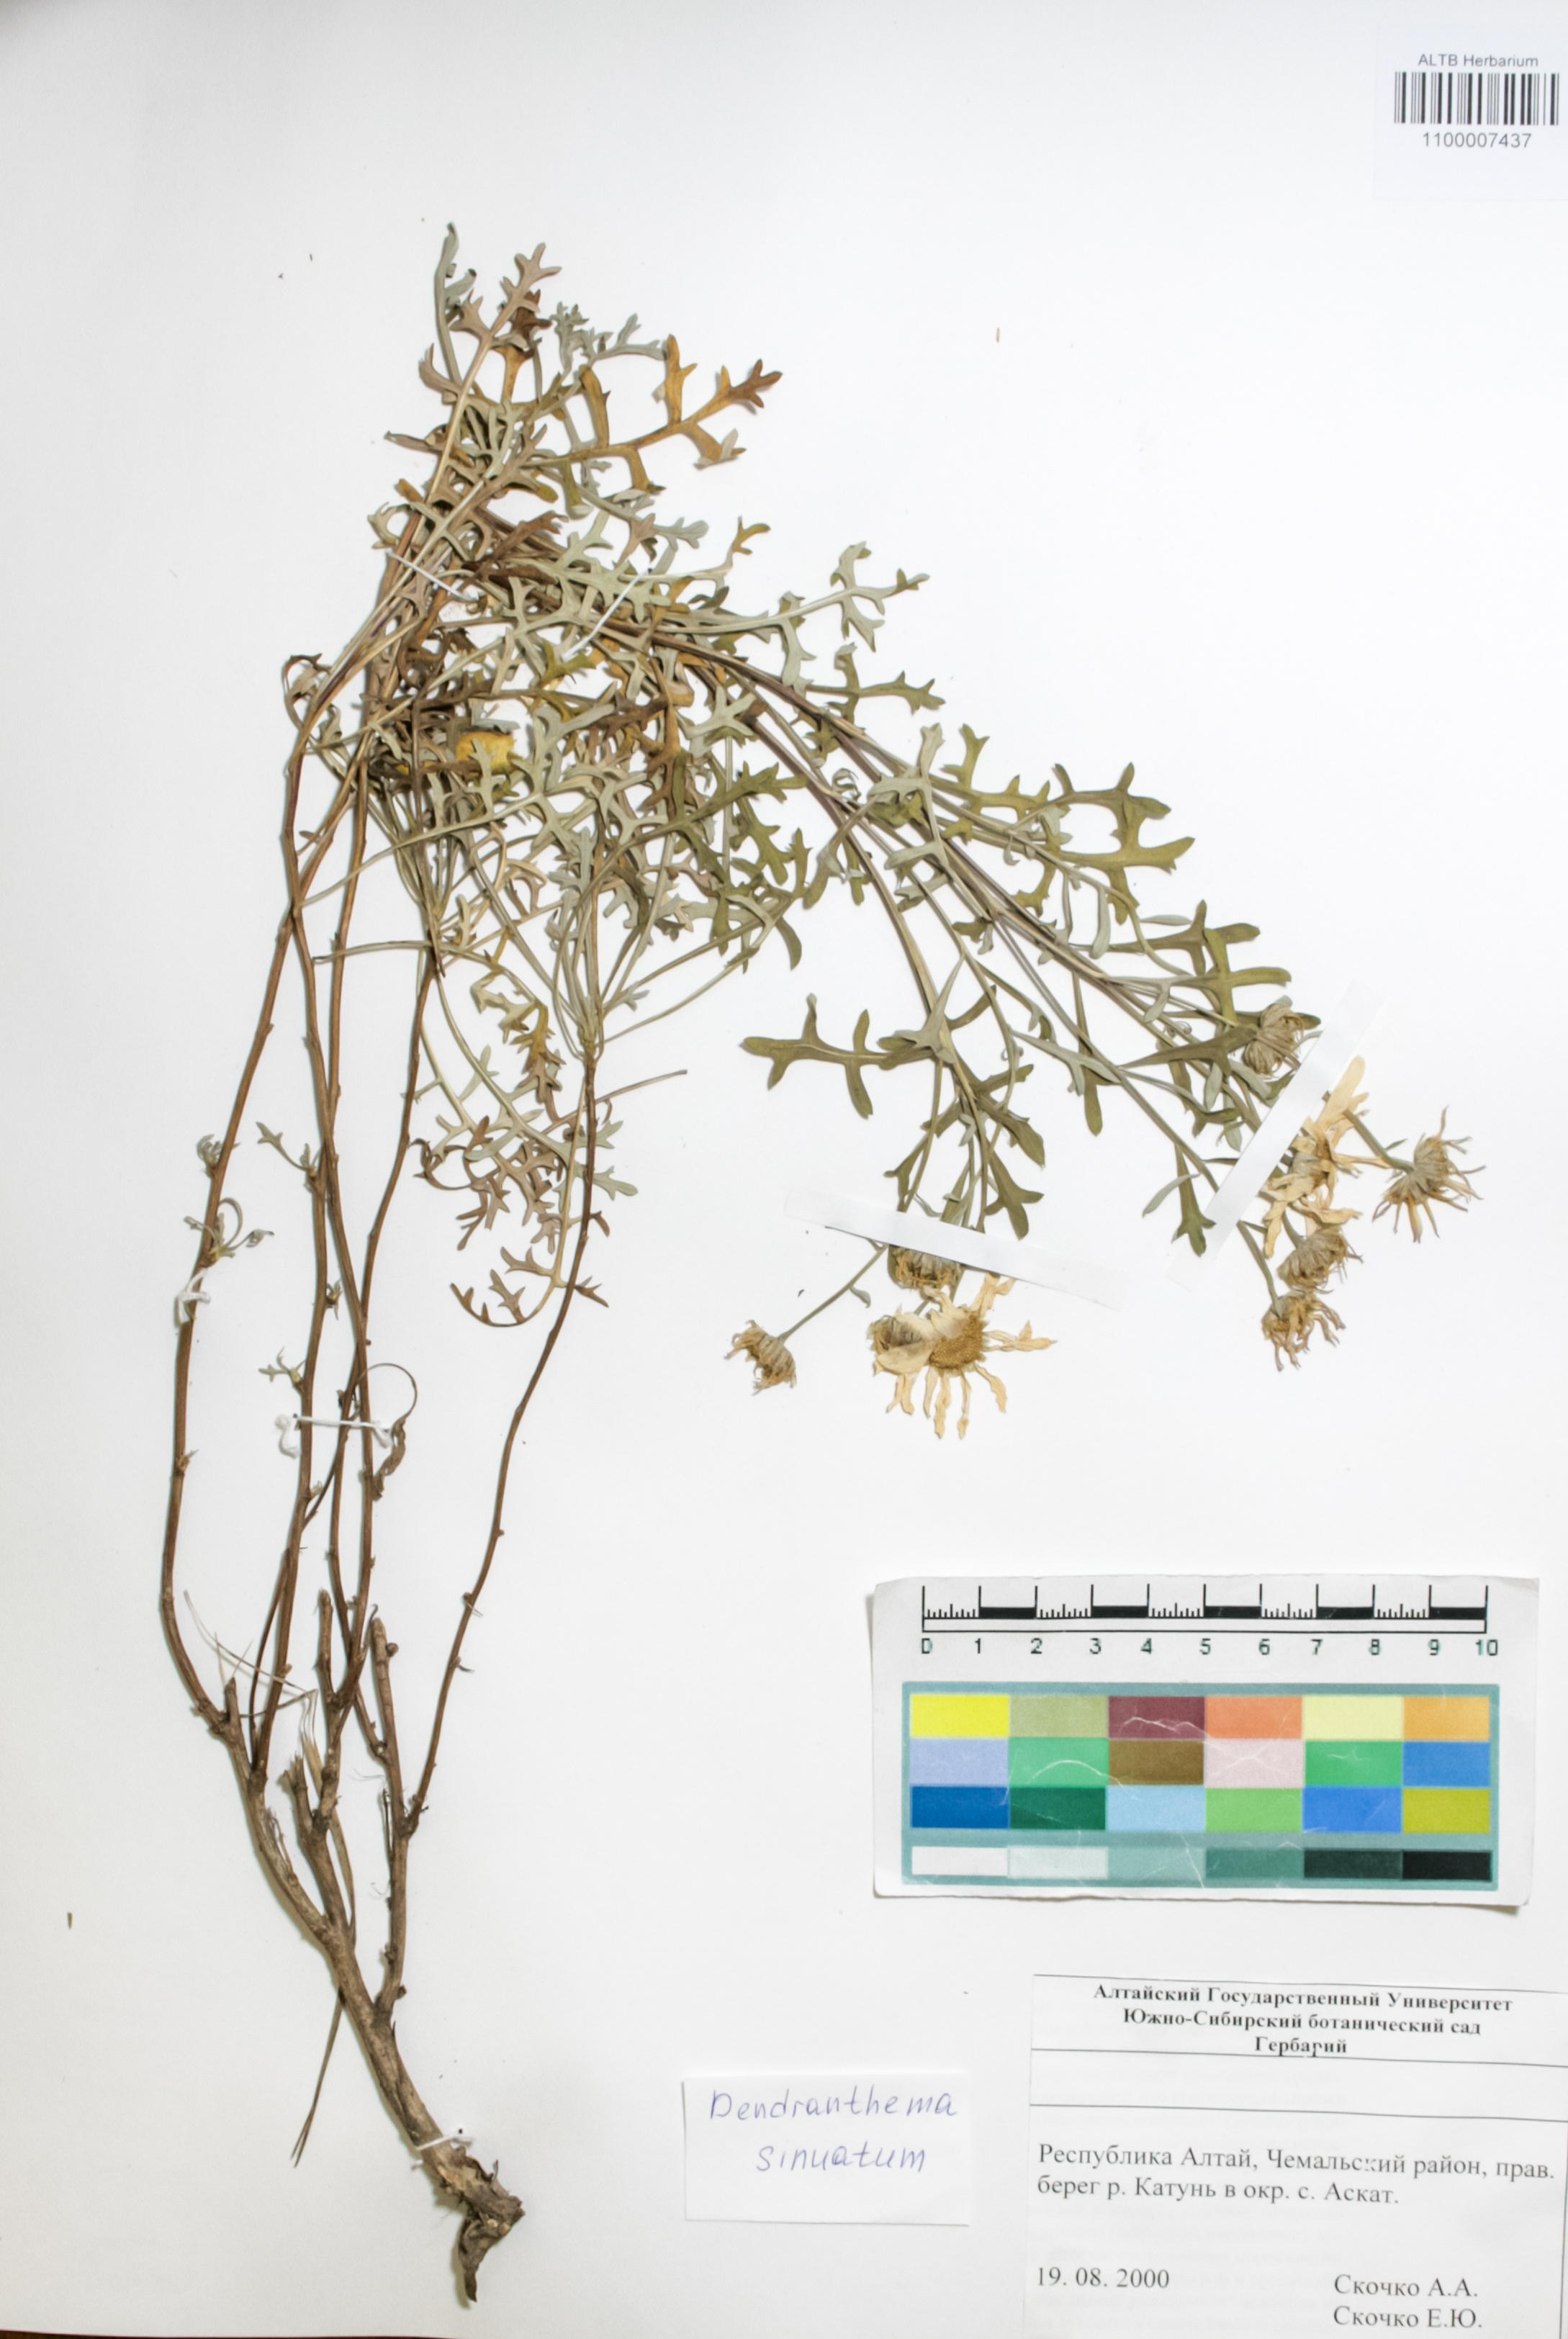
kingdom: Plantae
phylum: Tracheophyta
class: Magnoliopsida
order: Asterales
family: Asteraceae
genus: Chrysanthemum
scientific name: Chrysanthemum sinuatum
